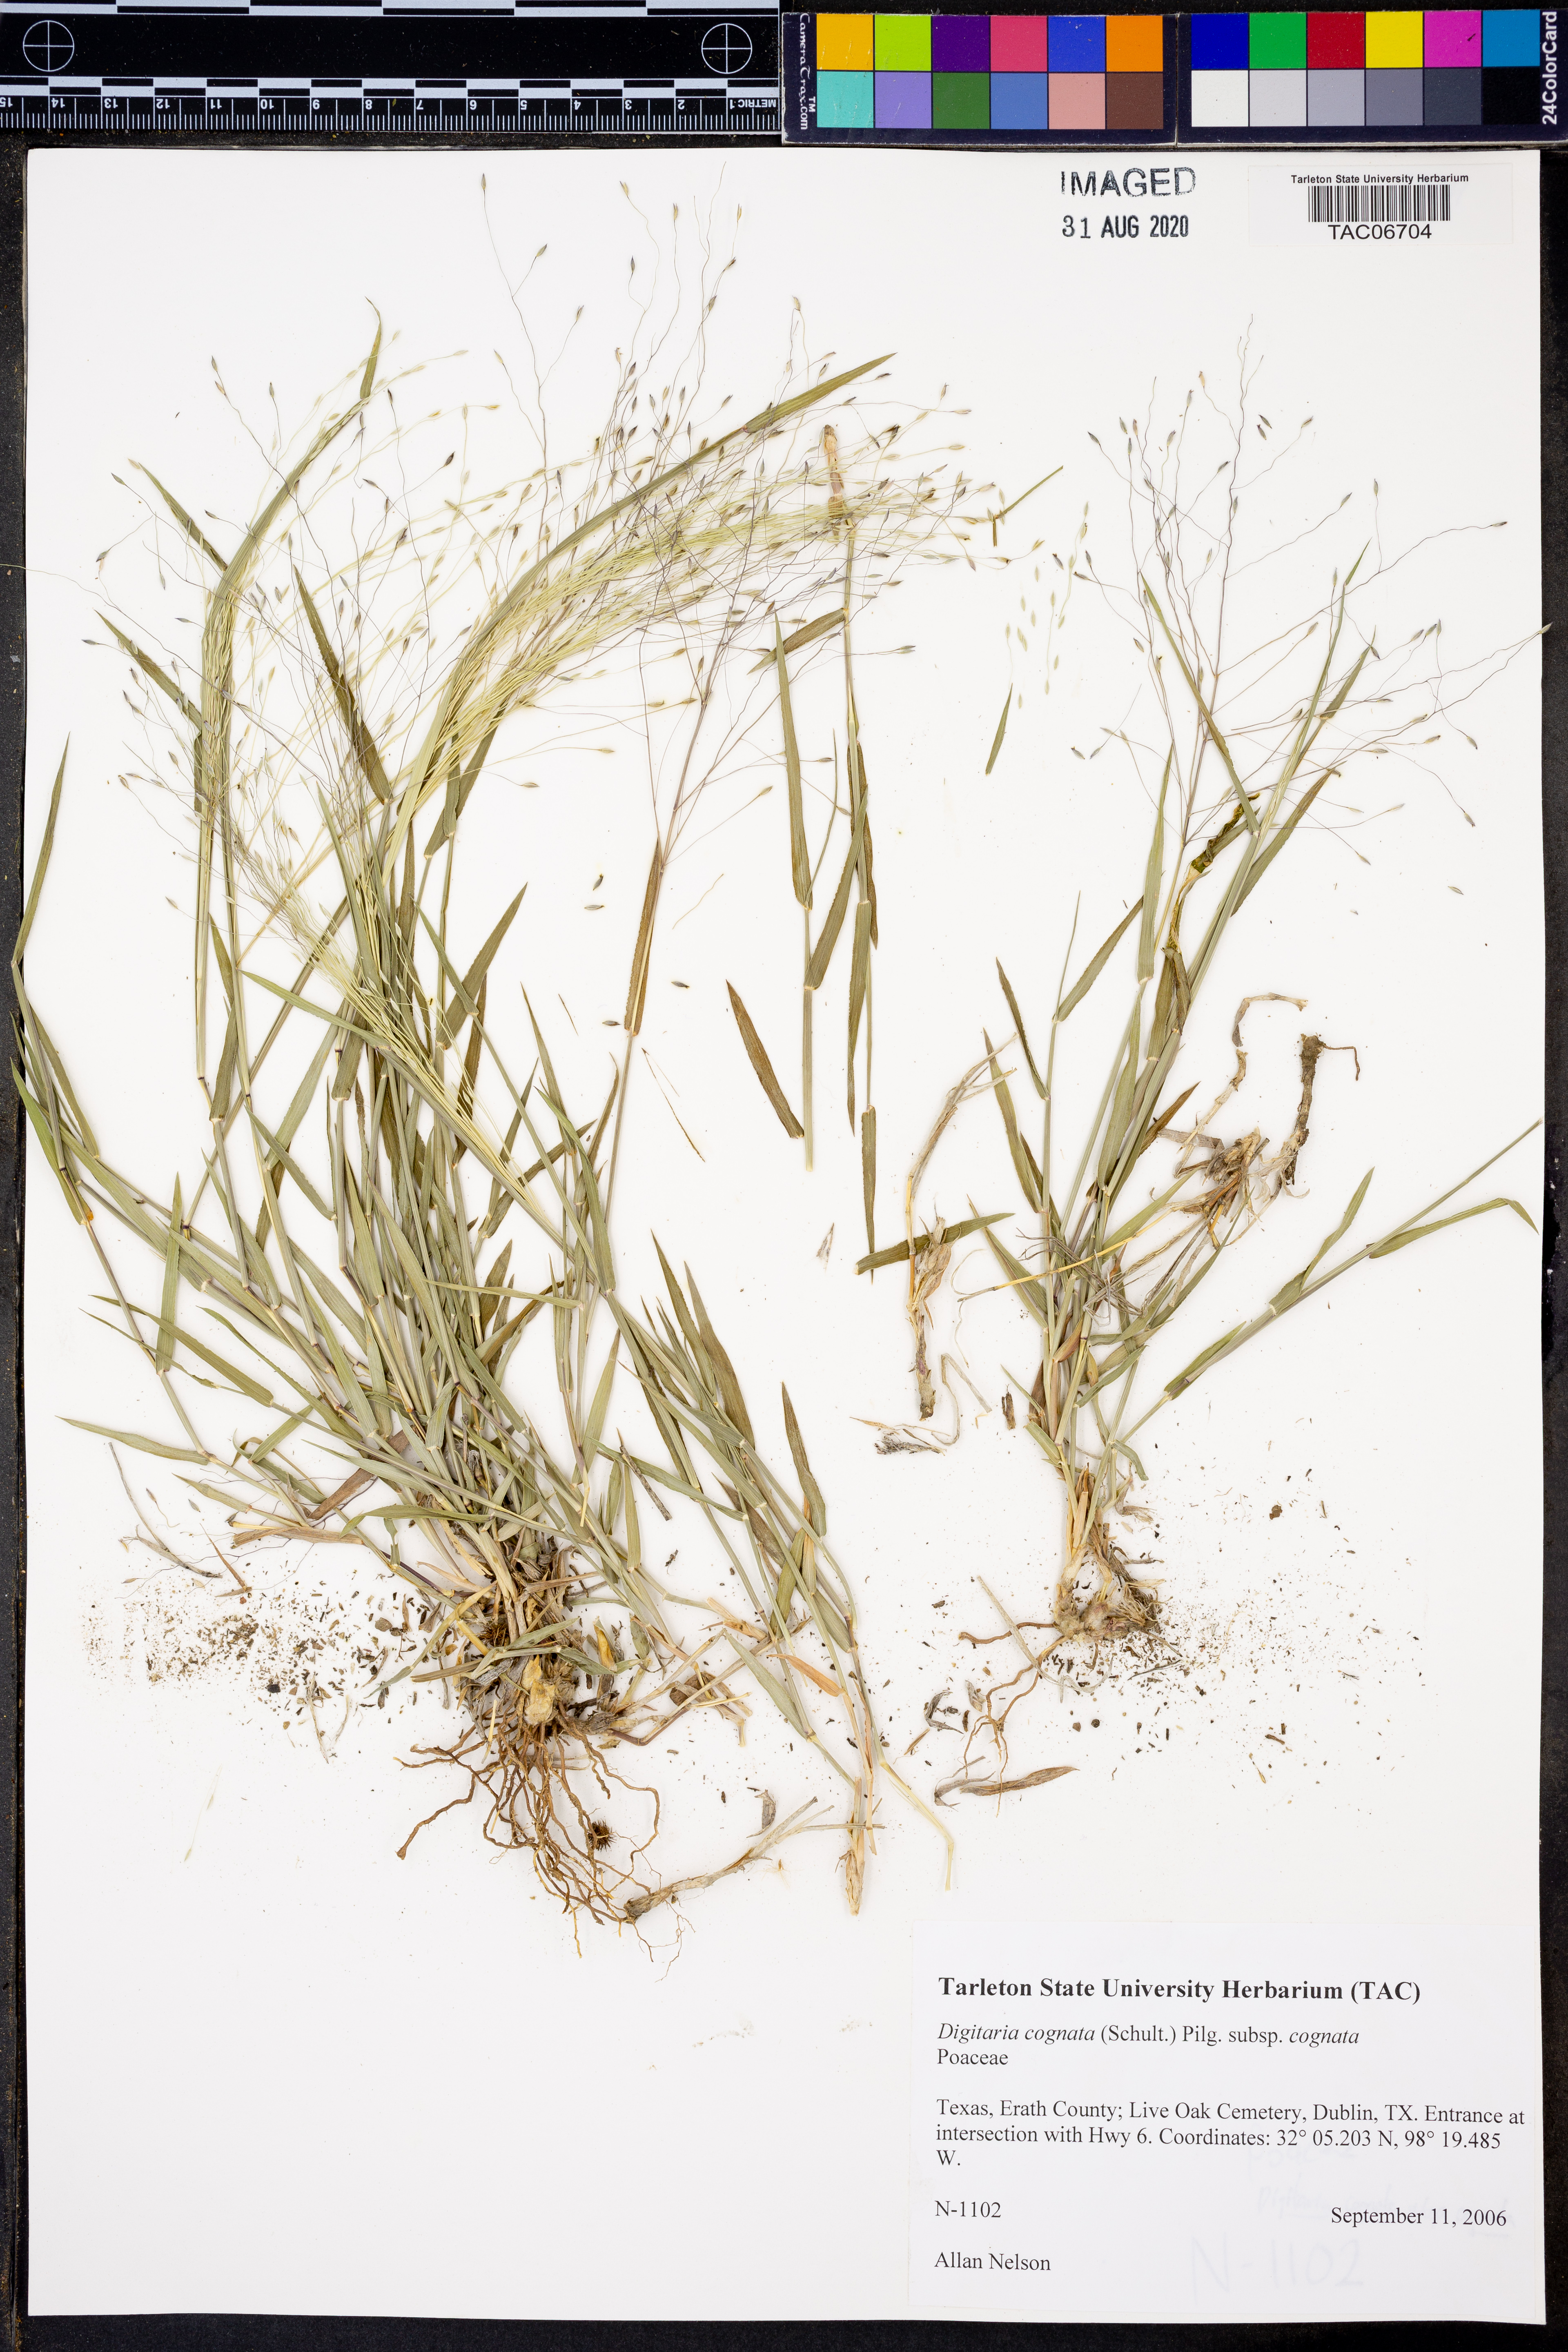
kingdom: Plantae
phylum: Tracheophyta
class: Liliopsida
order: Poales
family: Poaceae
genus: Digitaria
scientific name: Digitaria cognata
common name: Fall witchgrass
